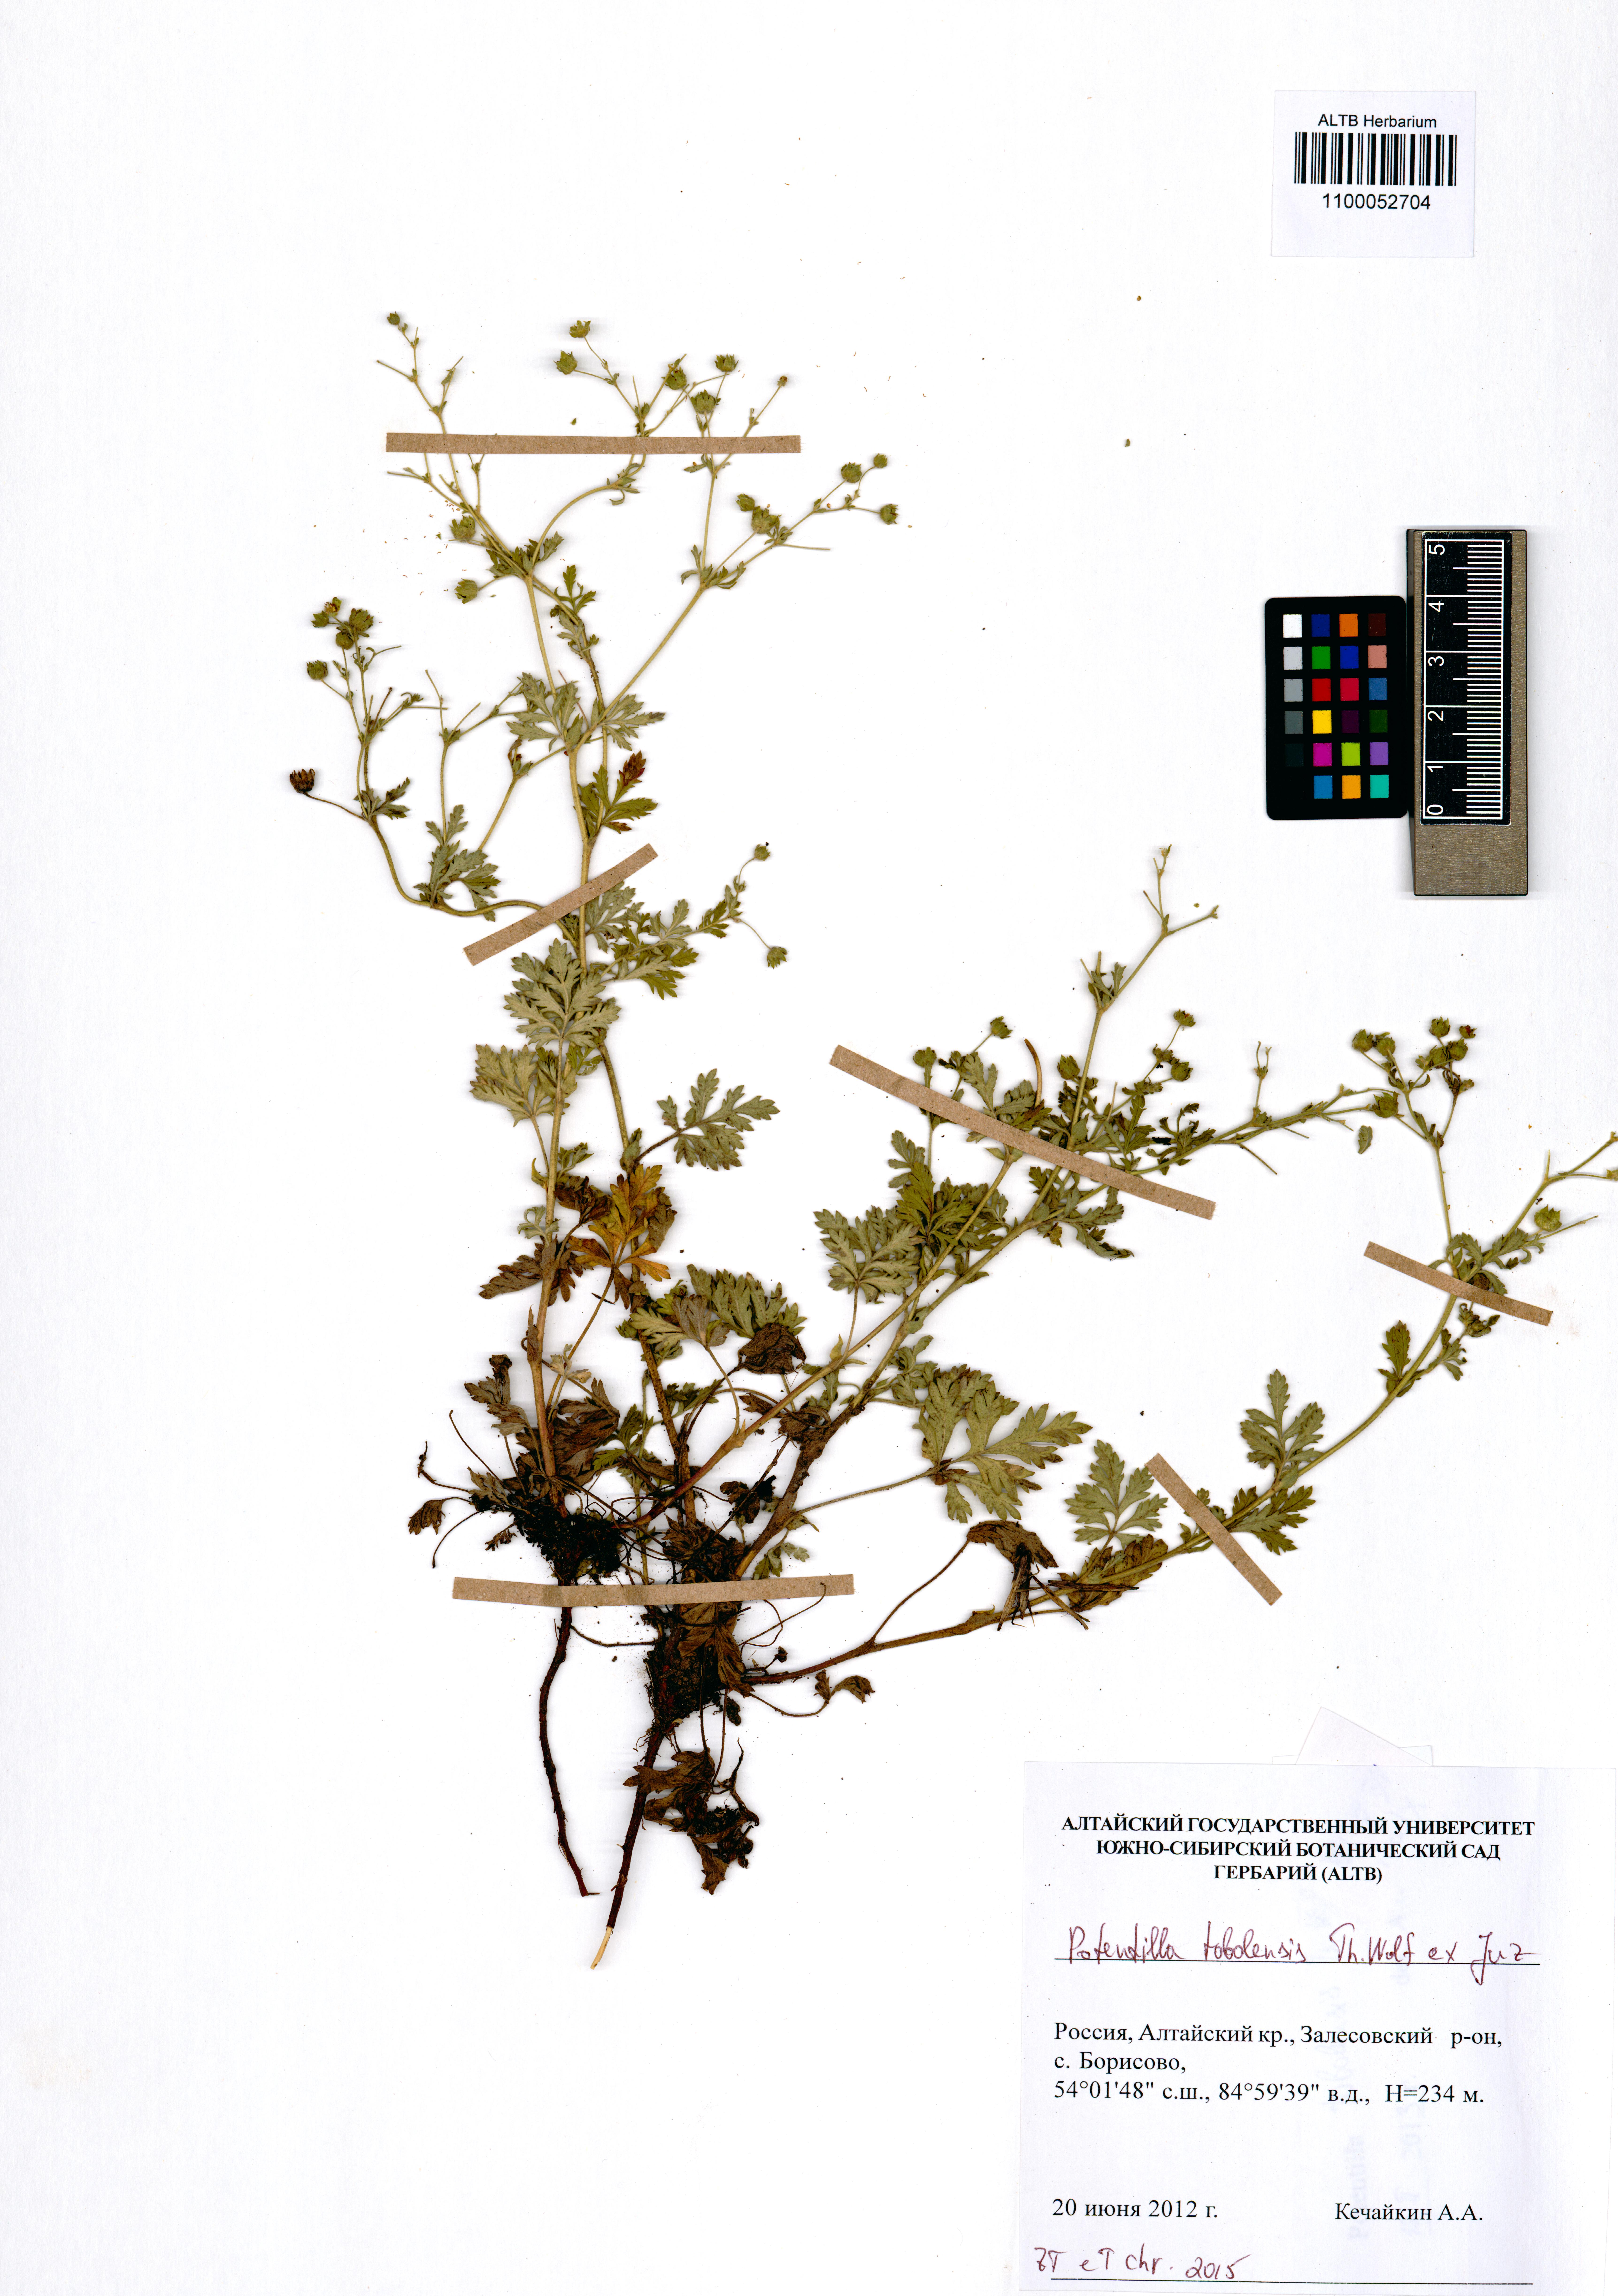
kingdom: Plantae
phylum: Tracheophyta
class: Magnoliopsida
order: Rosales
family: Rosaceae
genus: Potentilla
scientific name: Potentilla tobolensis
